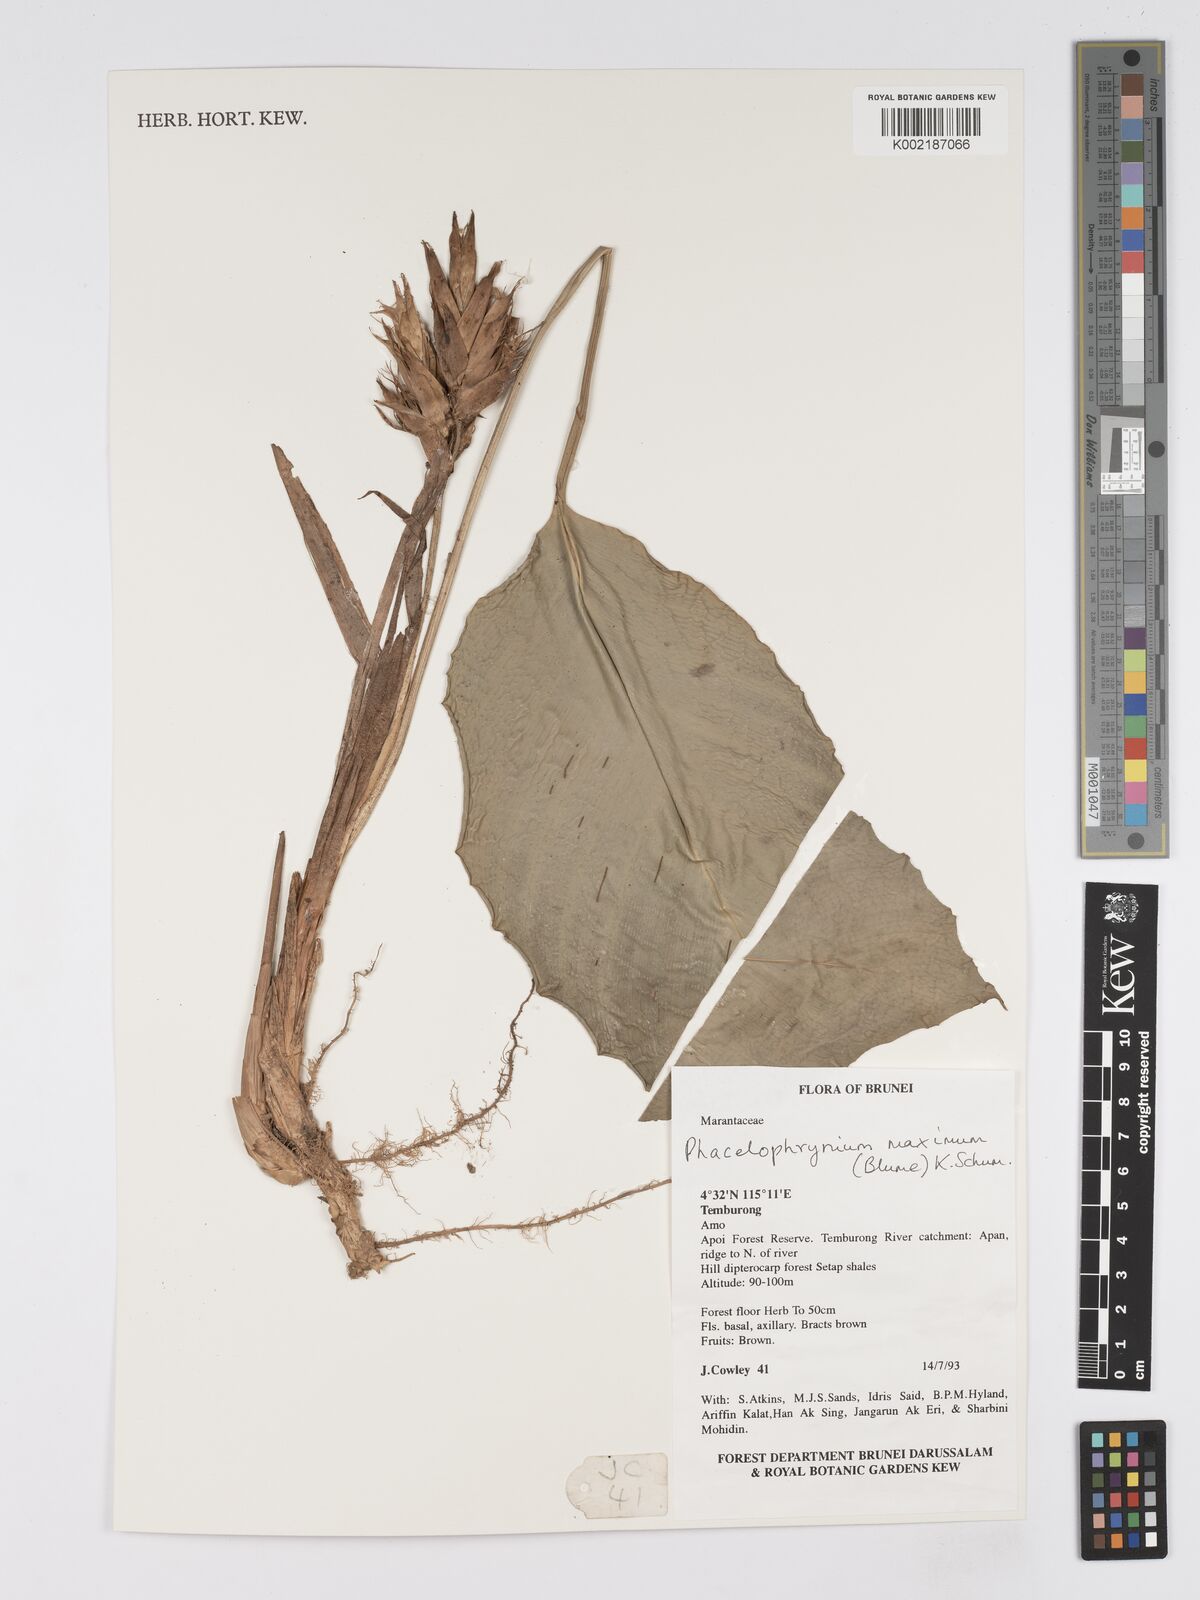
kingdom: Plantae
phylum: Tracheophyta
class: Liliopsida
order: Zingiberales
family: Marantaceae
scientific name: Marantaceae
